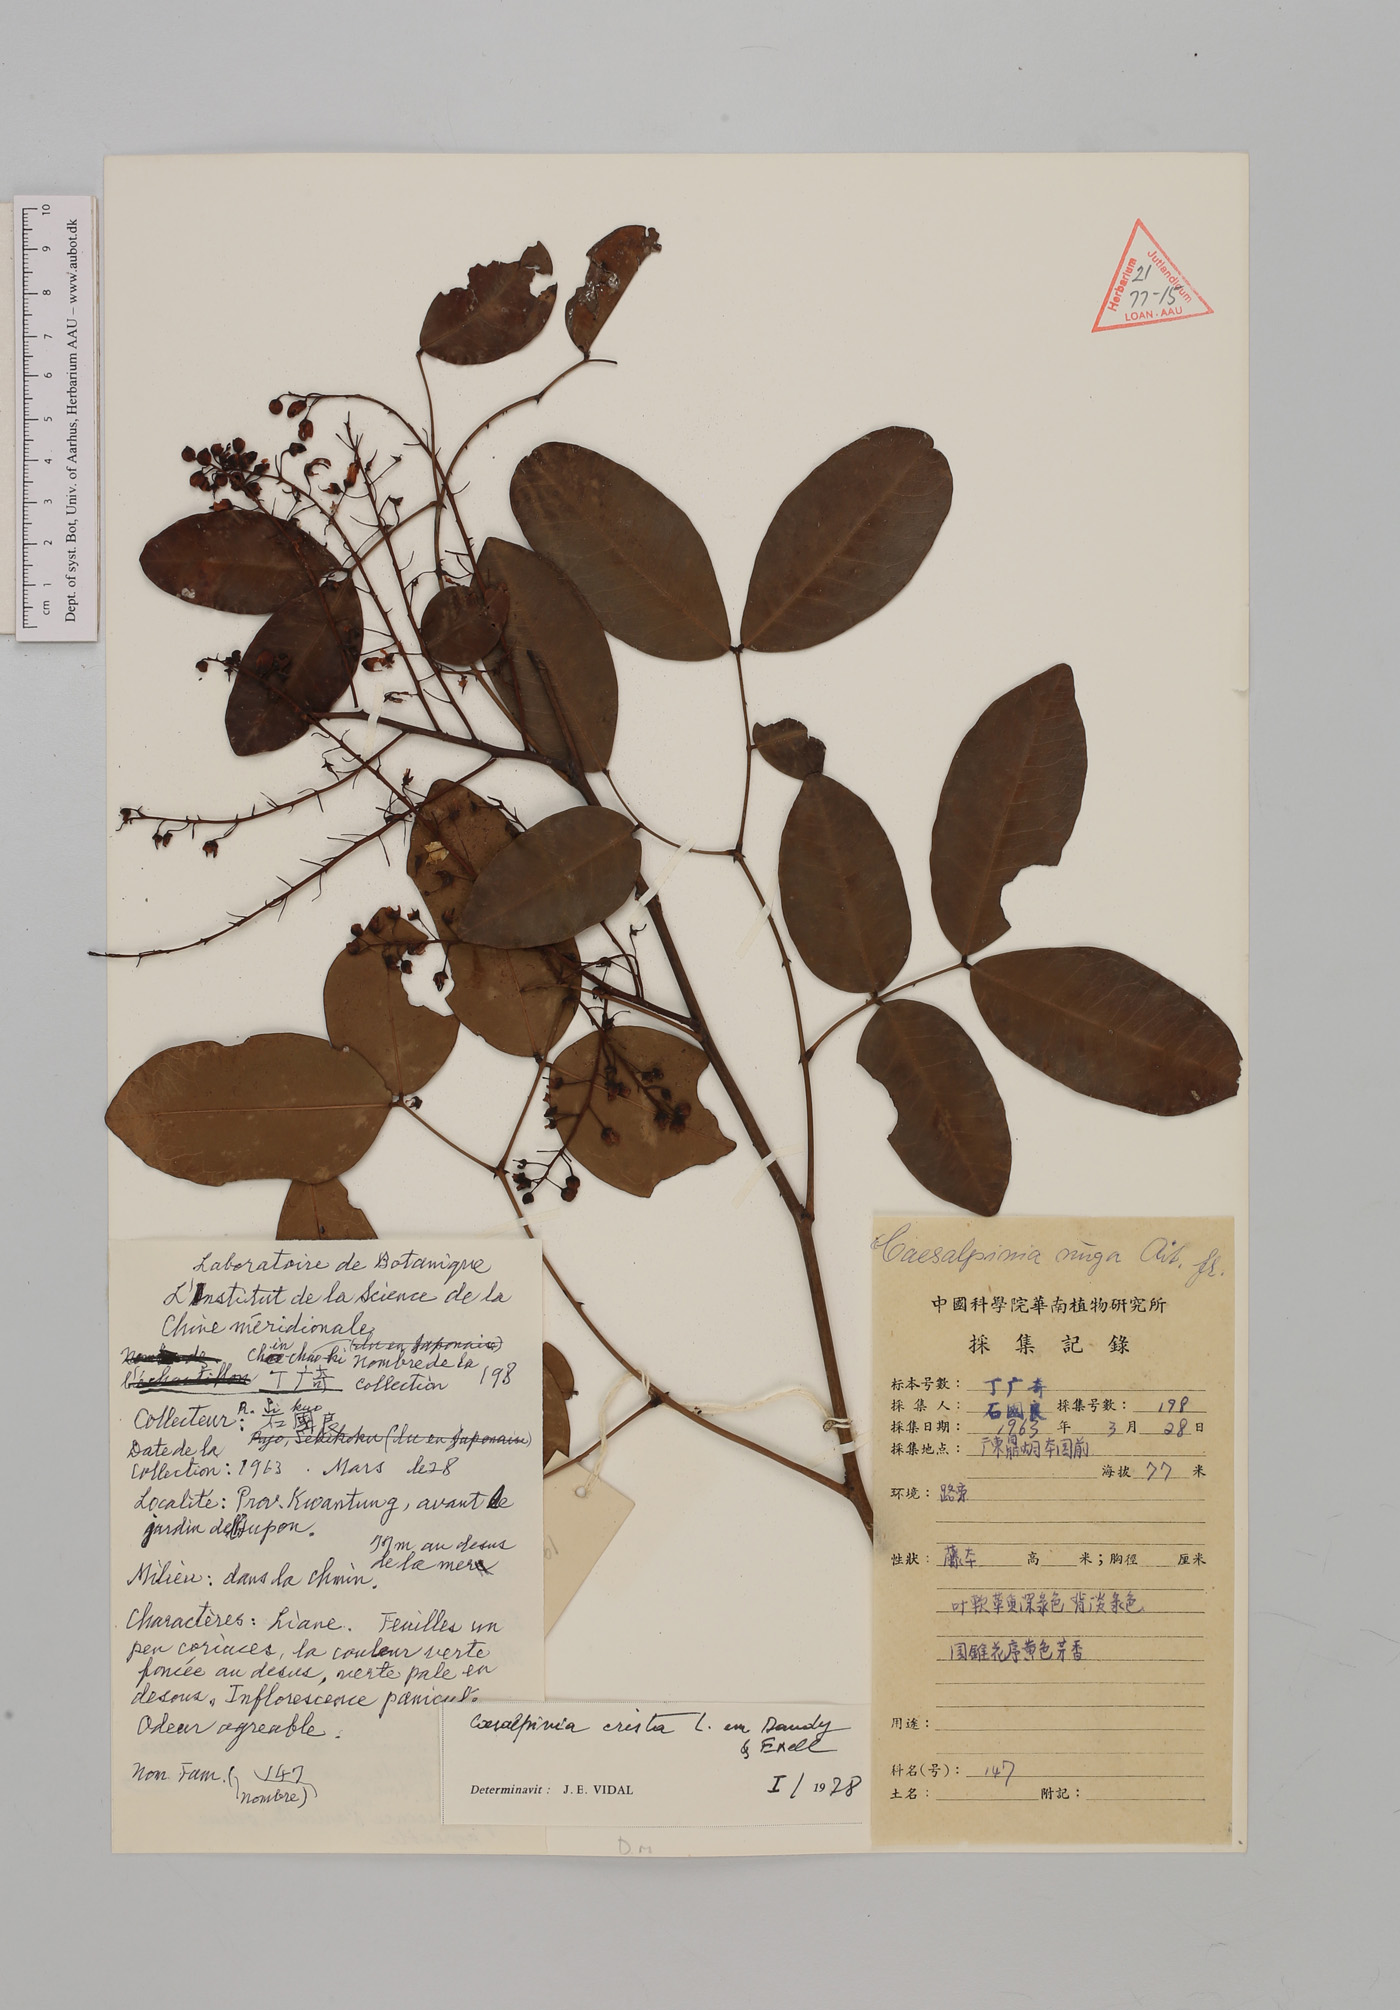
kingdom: Plantae
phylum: Tracheophyta
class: Magnoliopsida
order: Fabales
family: Fabaceae
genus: Caesalpinia
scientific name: Caesalpinia Ticanto crista
